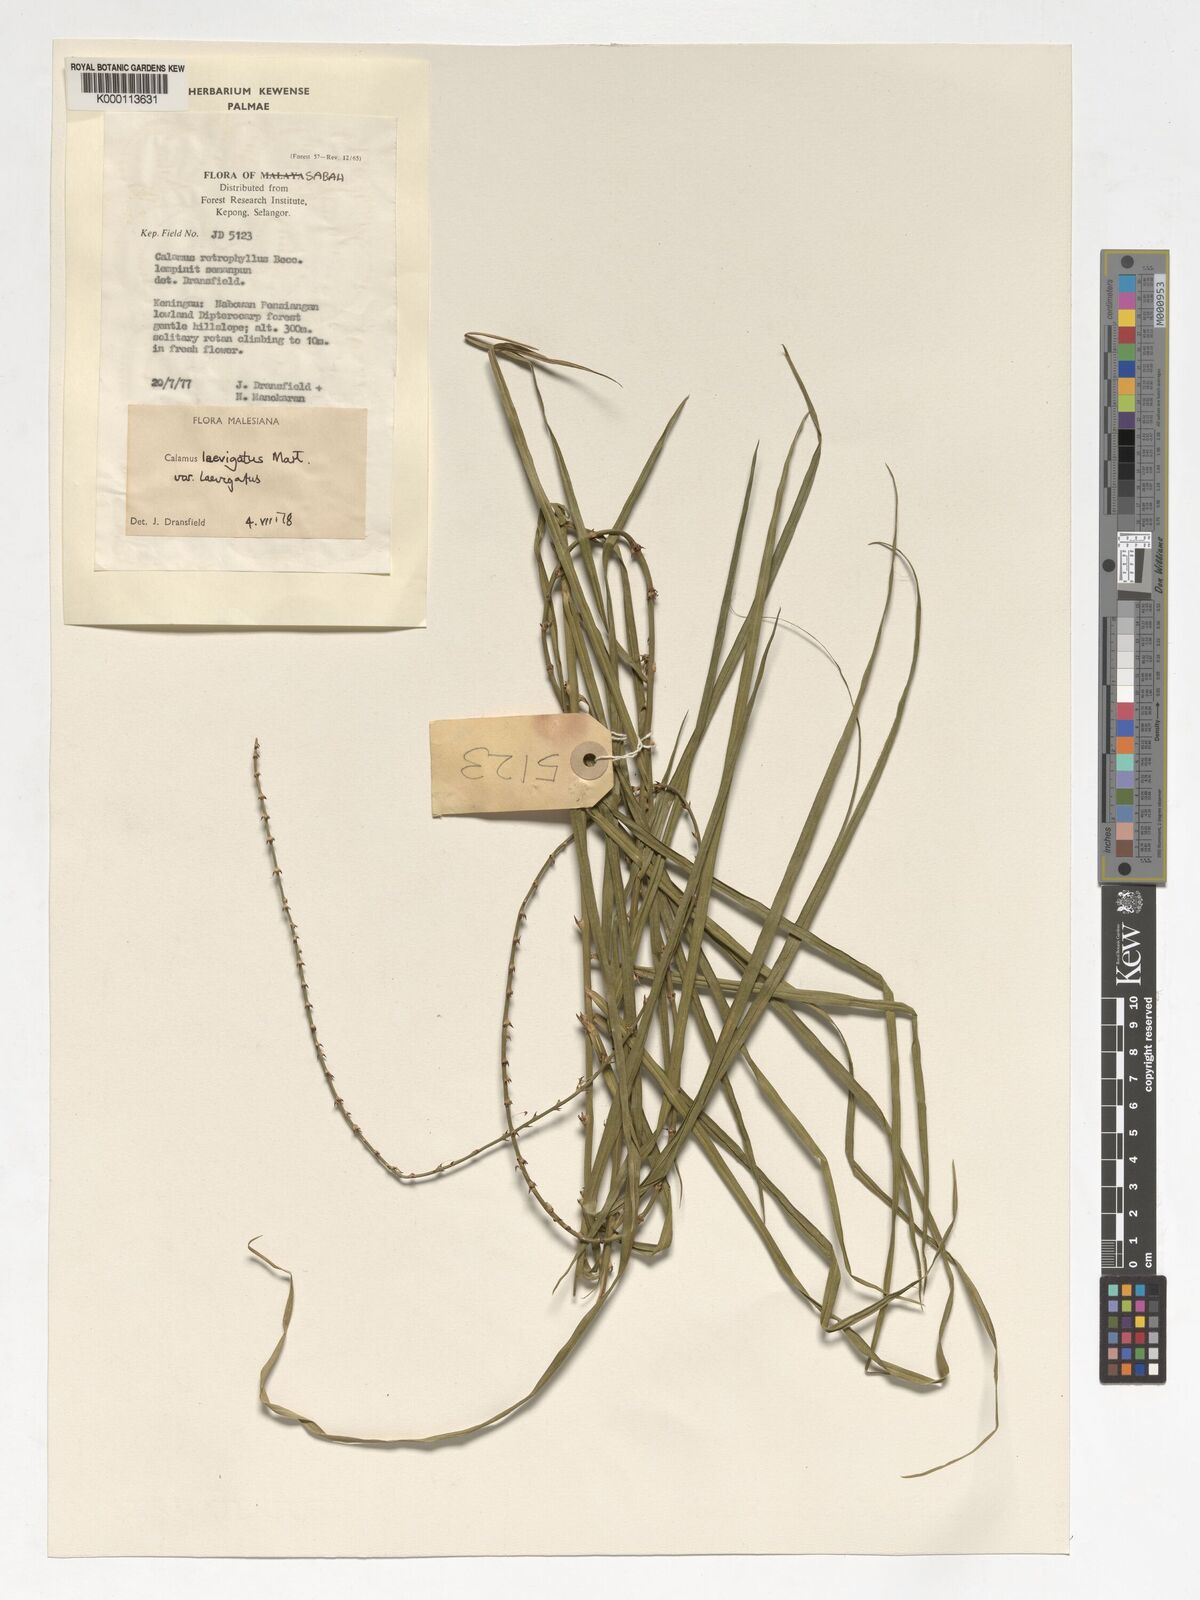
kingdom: Plantae
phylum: Tracheophyta
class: Liliopsida
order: Arecales
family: Arecaceae
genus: Calamus
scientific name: Calamus
